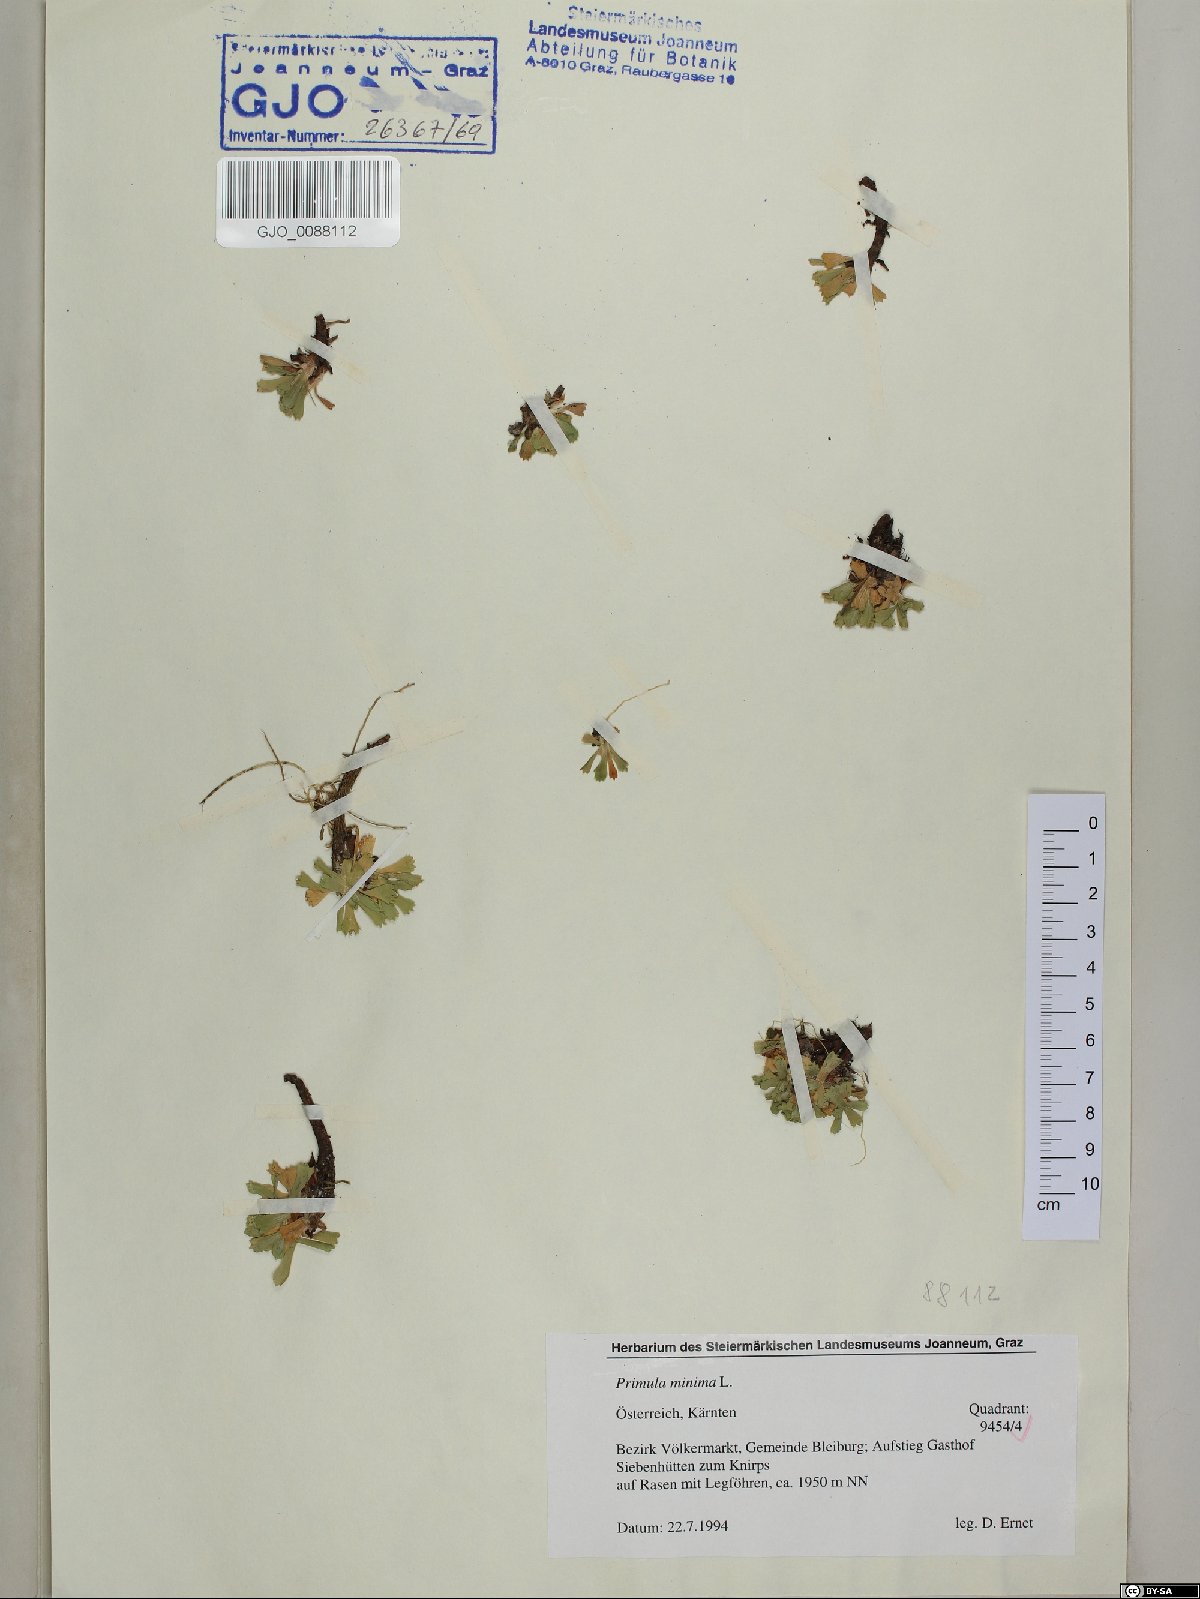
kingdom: Plantae
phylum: Tracheophyta
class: Magnoliopsida
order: Ericales
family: Primulaceae
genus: Primula
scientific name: Primula minima
